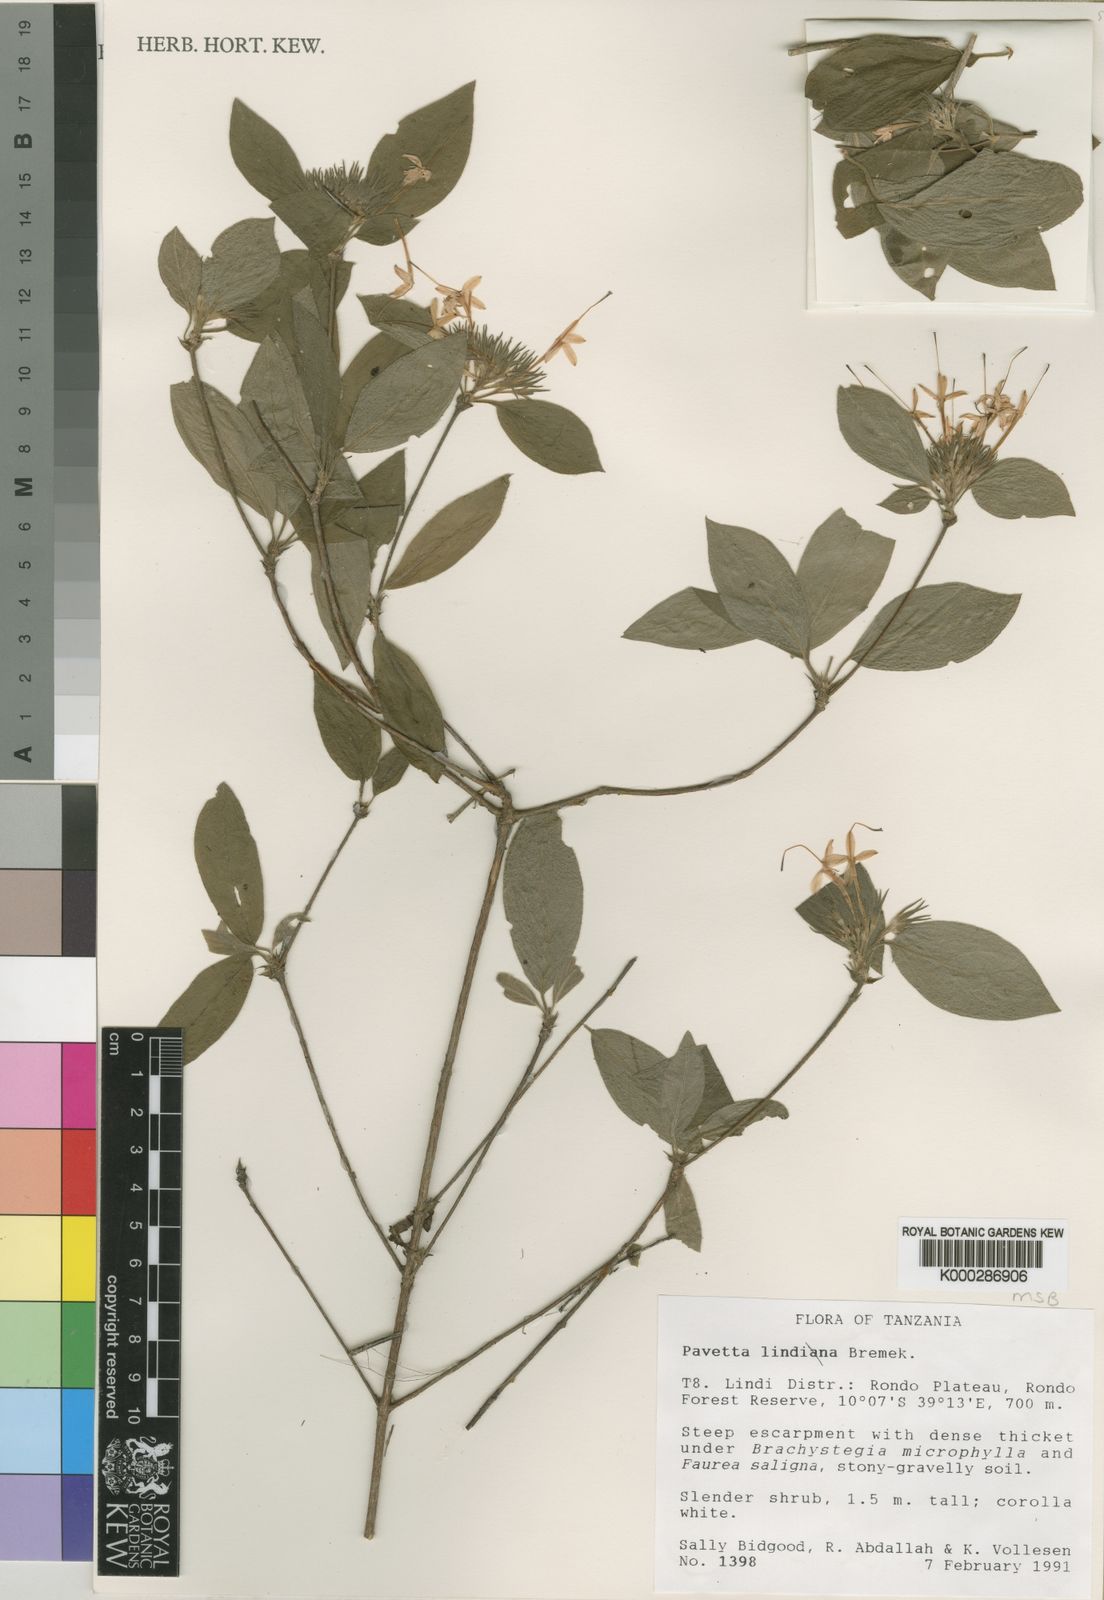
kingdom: Plantae
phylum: Tracheophyta
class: Magnoliopsida
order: Gentianales
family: Rubiaceae
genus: Pavetta
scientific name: Pavetta lindina
